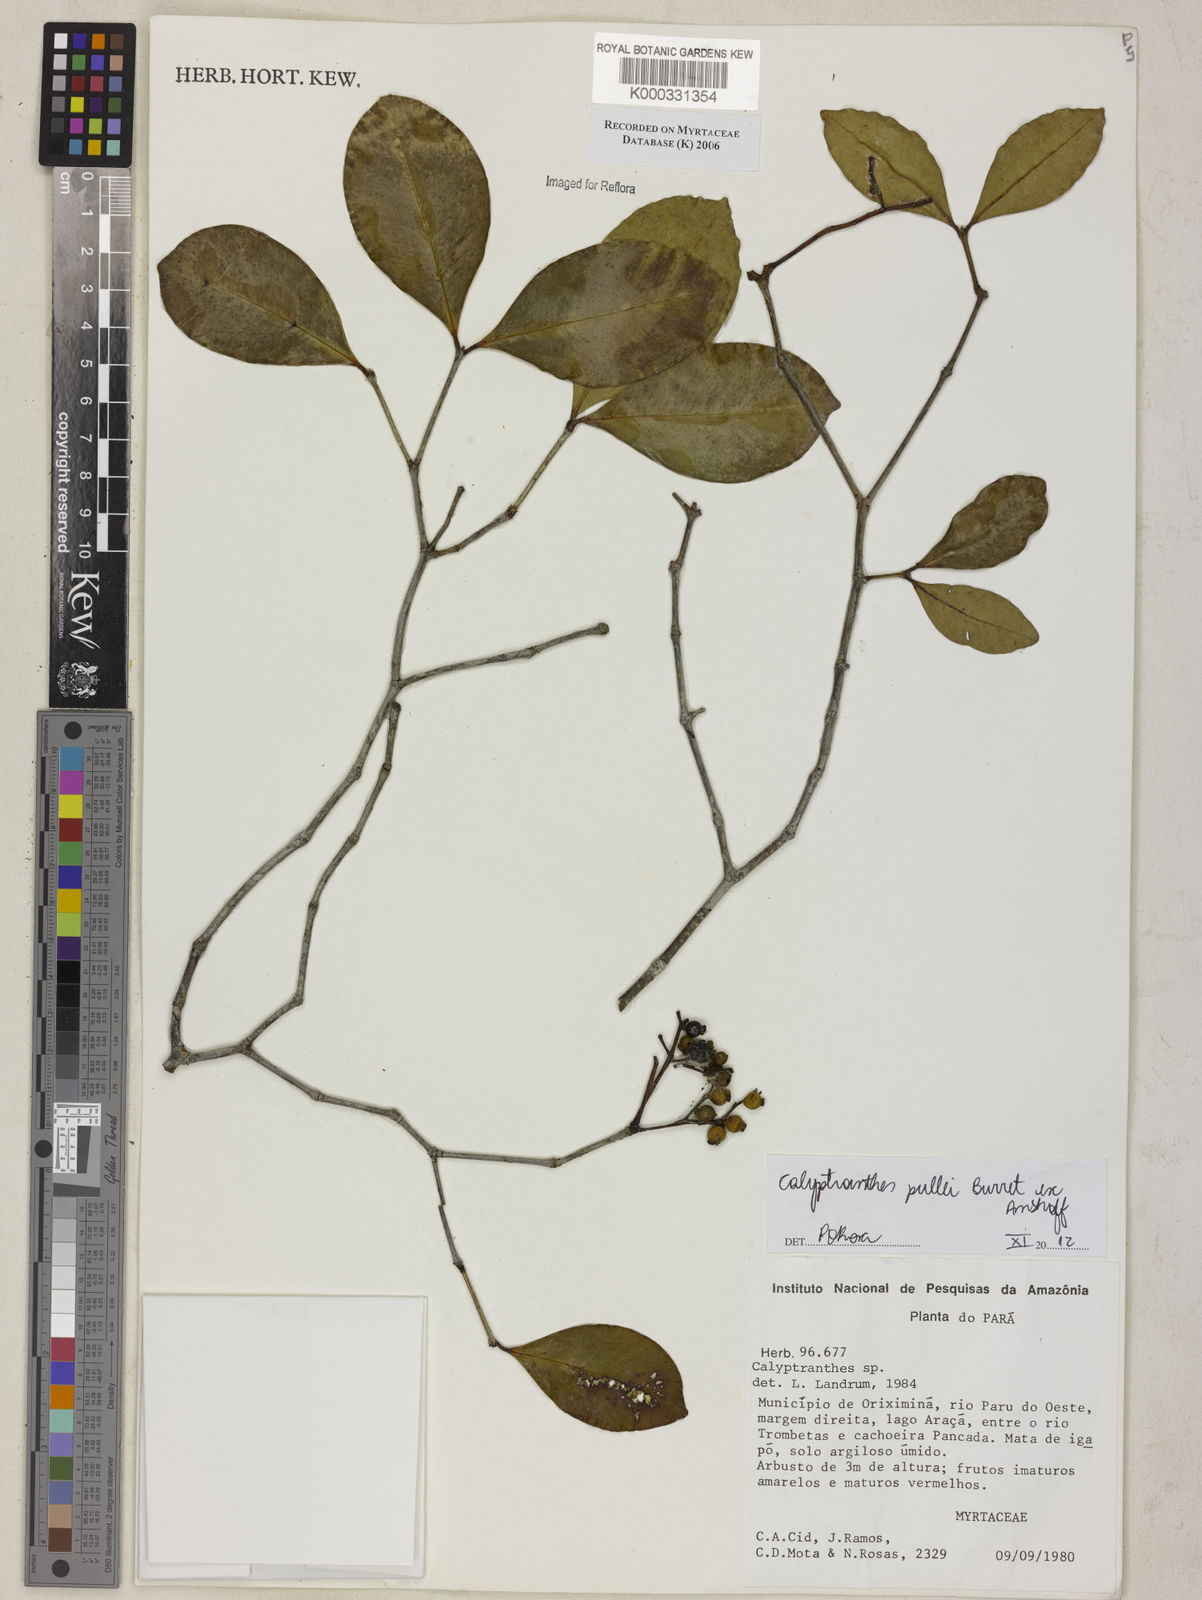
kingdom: Plantae
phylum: Tracheophyta
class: Magnoliopsida
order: Myrtales
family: Myrtaceae
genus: Calyptranthes
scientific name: Calyptranthes
